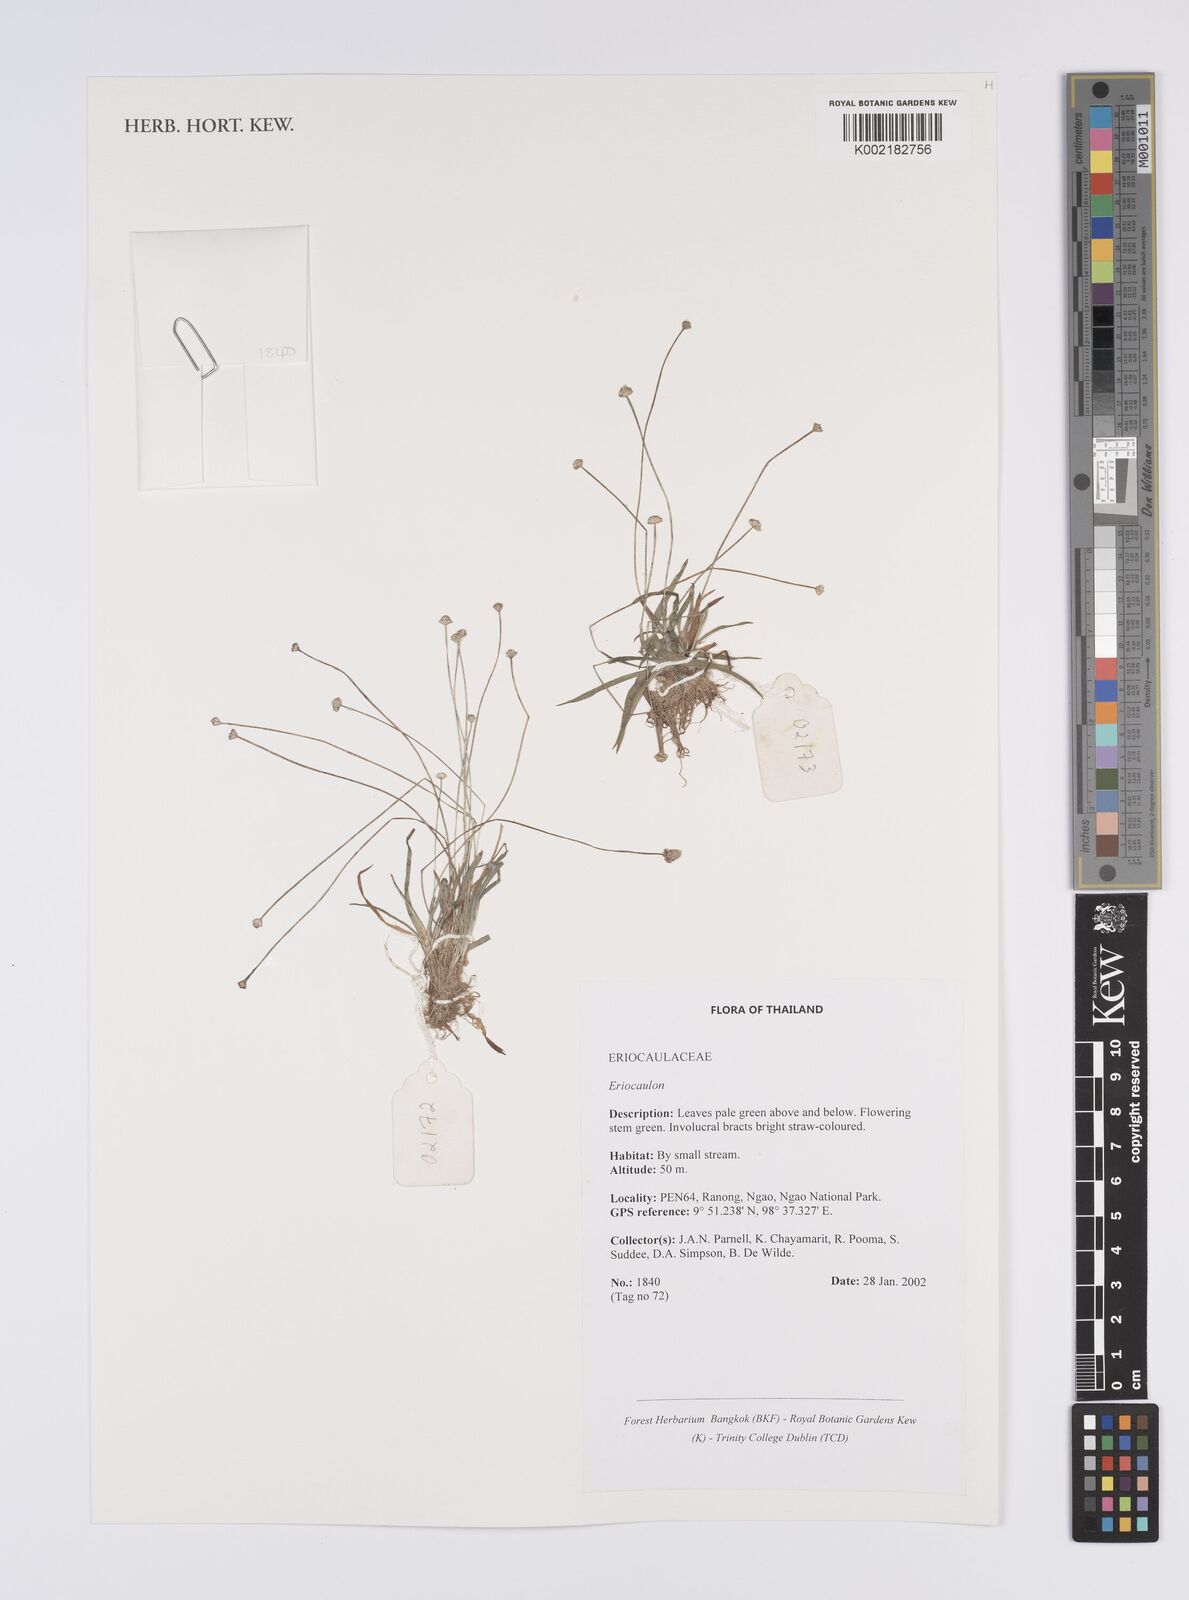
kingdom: Plantae
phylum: Tracheophyta
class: Liliopsida
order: Poales
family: Eriocaulaceae
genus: Eriocaulon
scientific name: Eriocaulon
